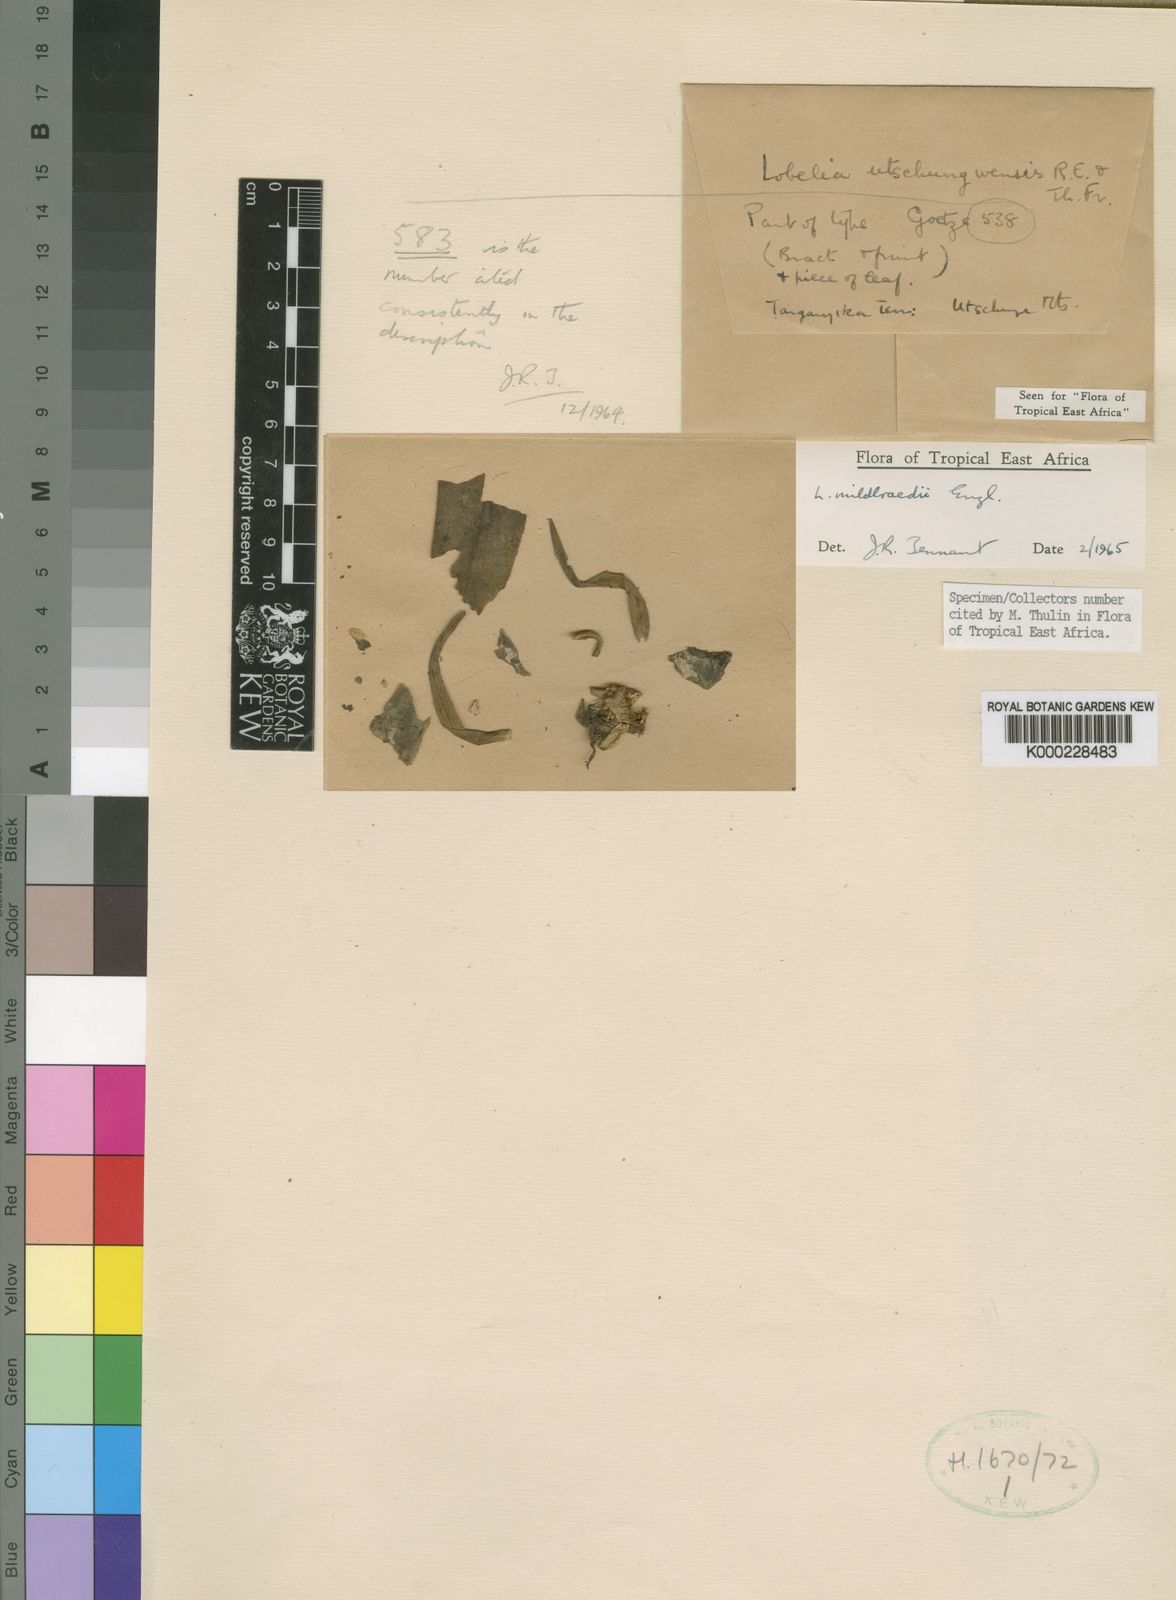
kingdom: Plantae
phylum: Tracheophyta
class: Magnoliopsida
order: Asterales
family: Campanulaceae
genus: Lobelia
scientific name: Lobelia mildbraedii
